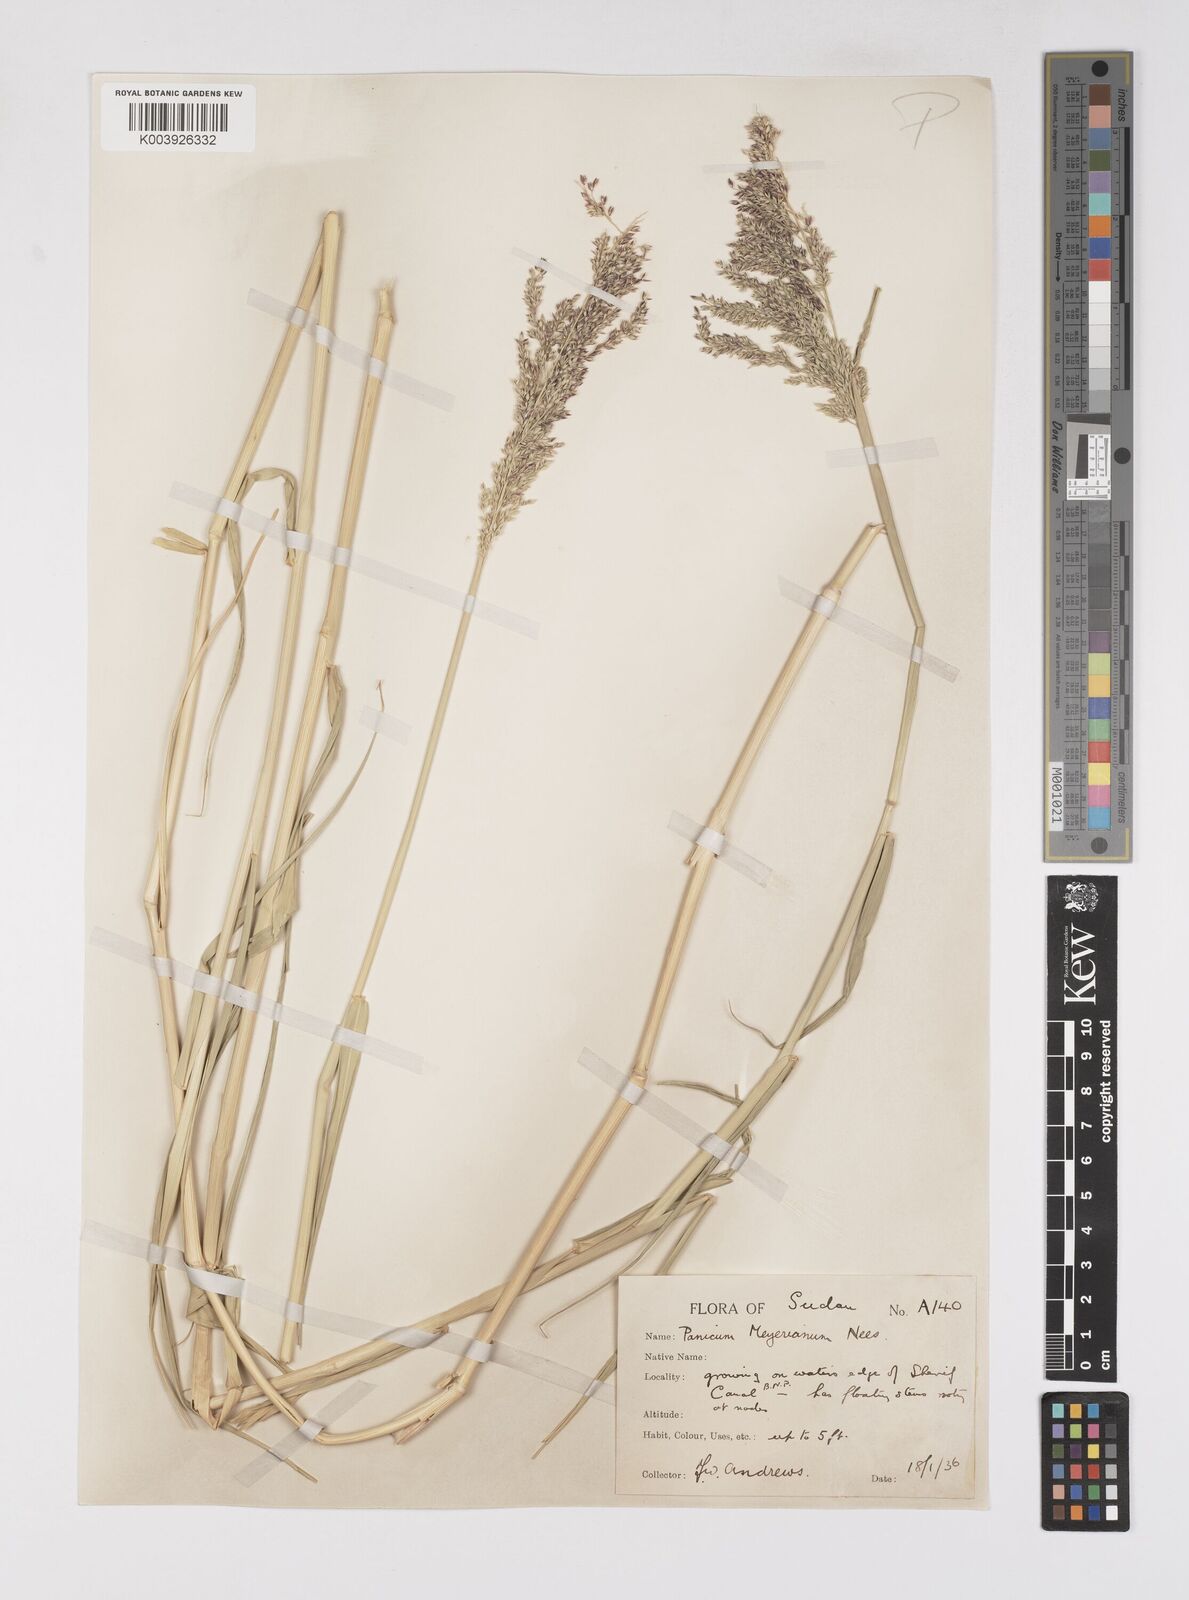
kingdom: Plantae
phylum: Tracheophyta
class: Liliopsida
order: Poales
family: Poaceae
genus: Eriochloa
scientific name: Eriochloa meyeriana
